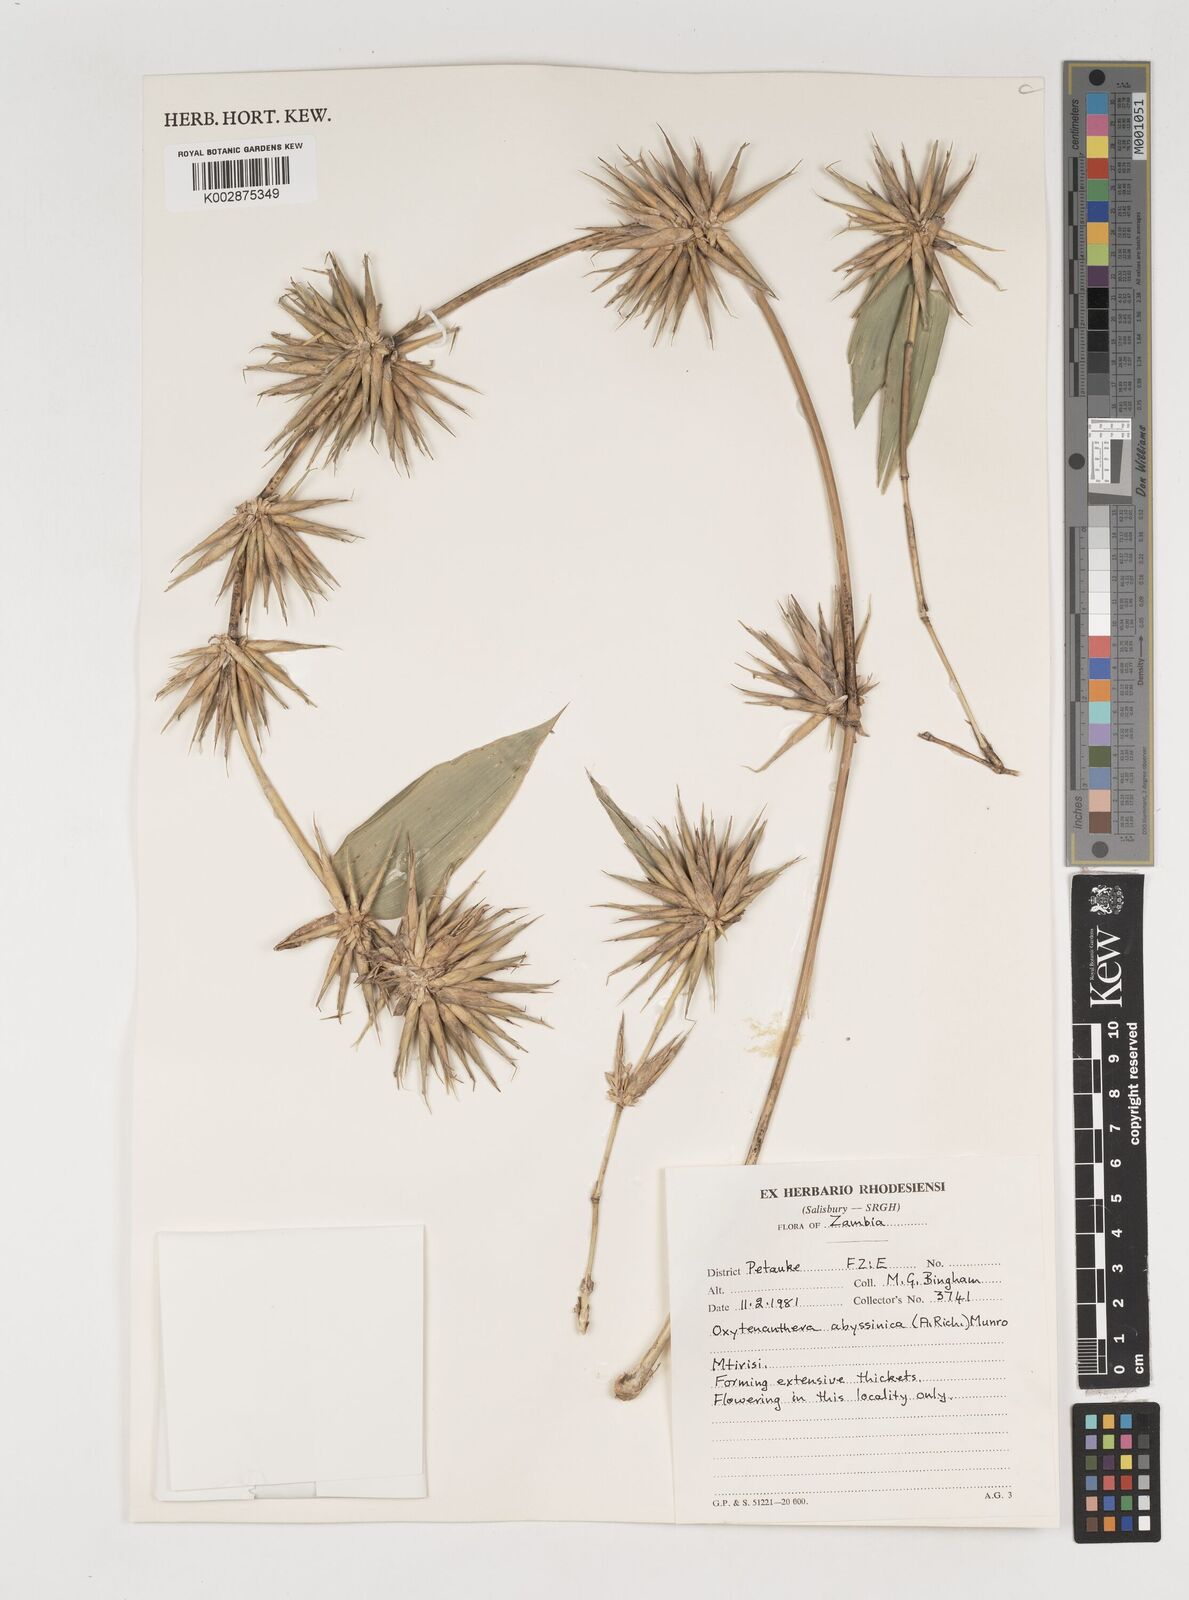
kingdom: Plantae
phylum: Tracheophyta
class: Liliopsida
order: Poales
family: Poaceae
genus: Oxytenanthera
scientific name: Oxytenanthera abyssinica
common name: Wine bamboo
